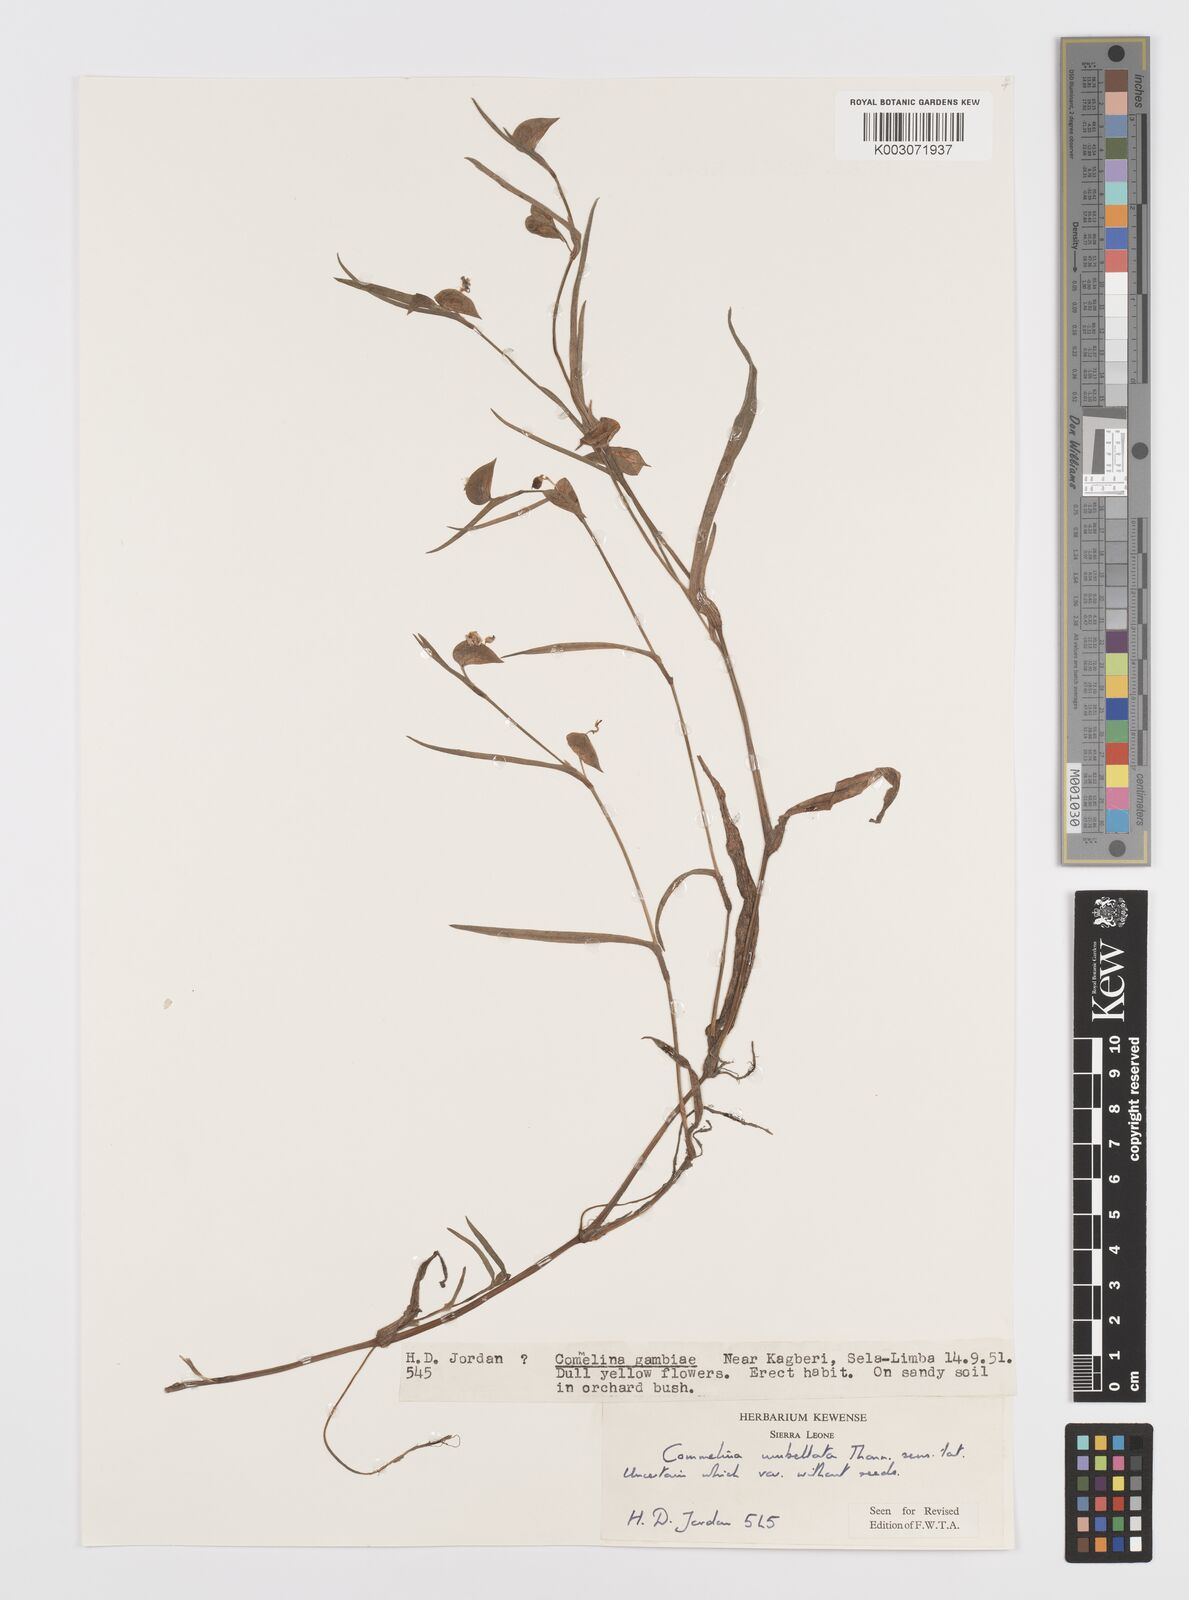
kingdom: Plantae
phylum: Tracheophyta
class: Liliopsida
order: Commelinales
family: Commelinaceae
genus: Commelina
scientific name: Commelina
